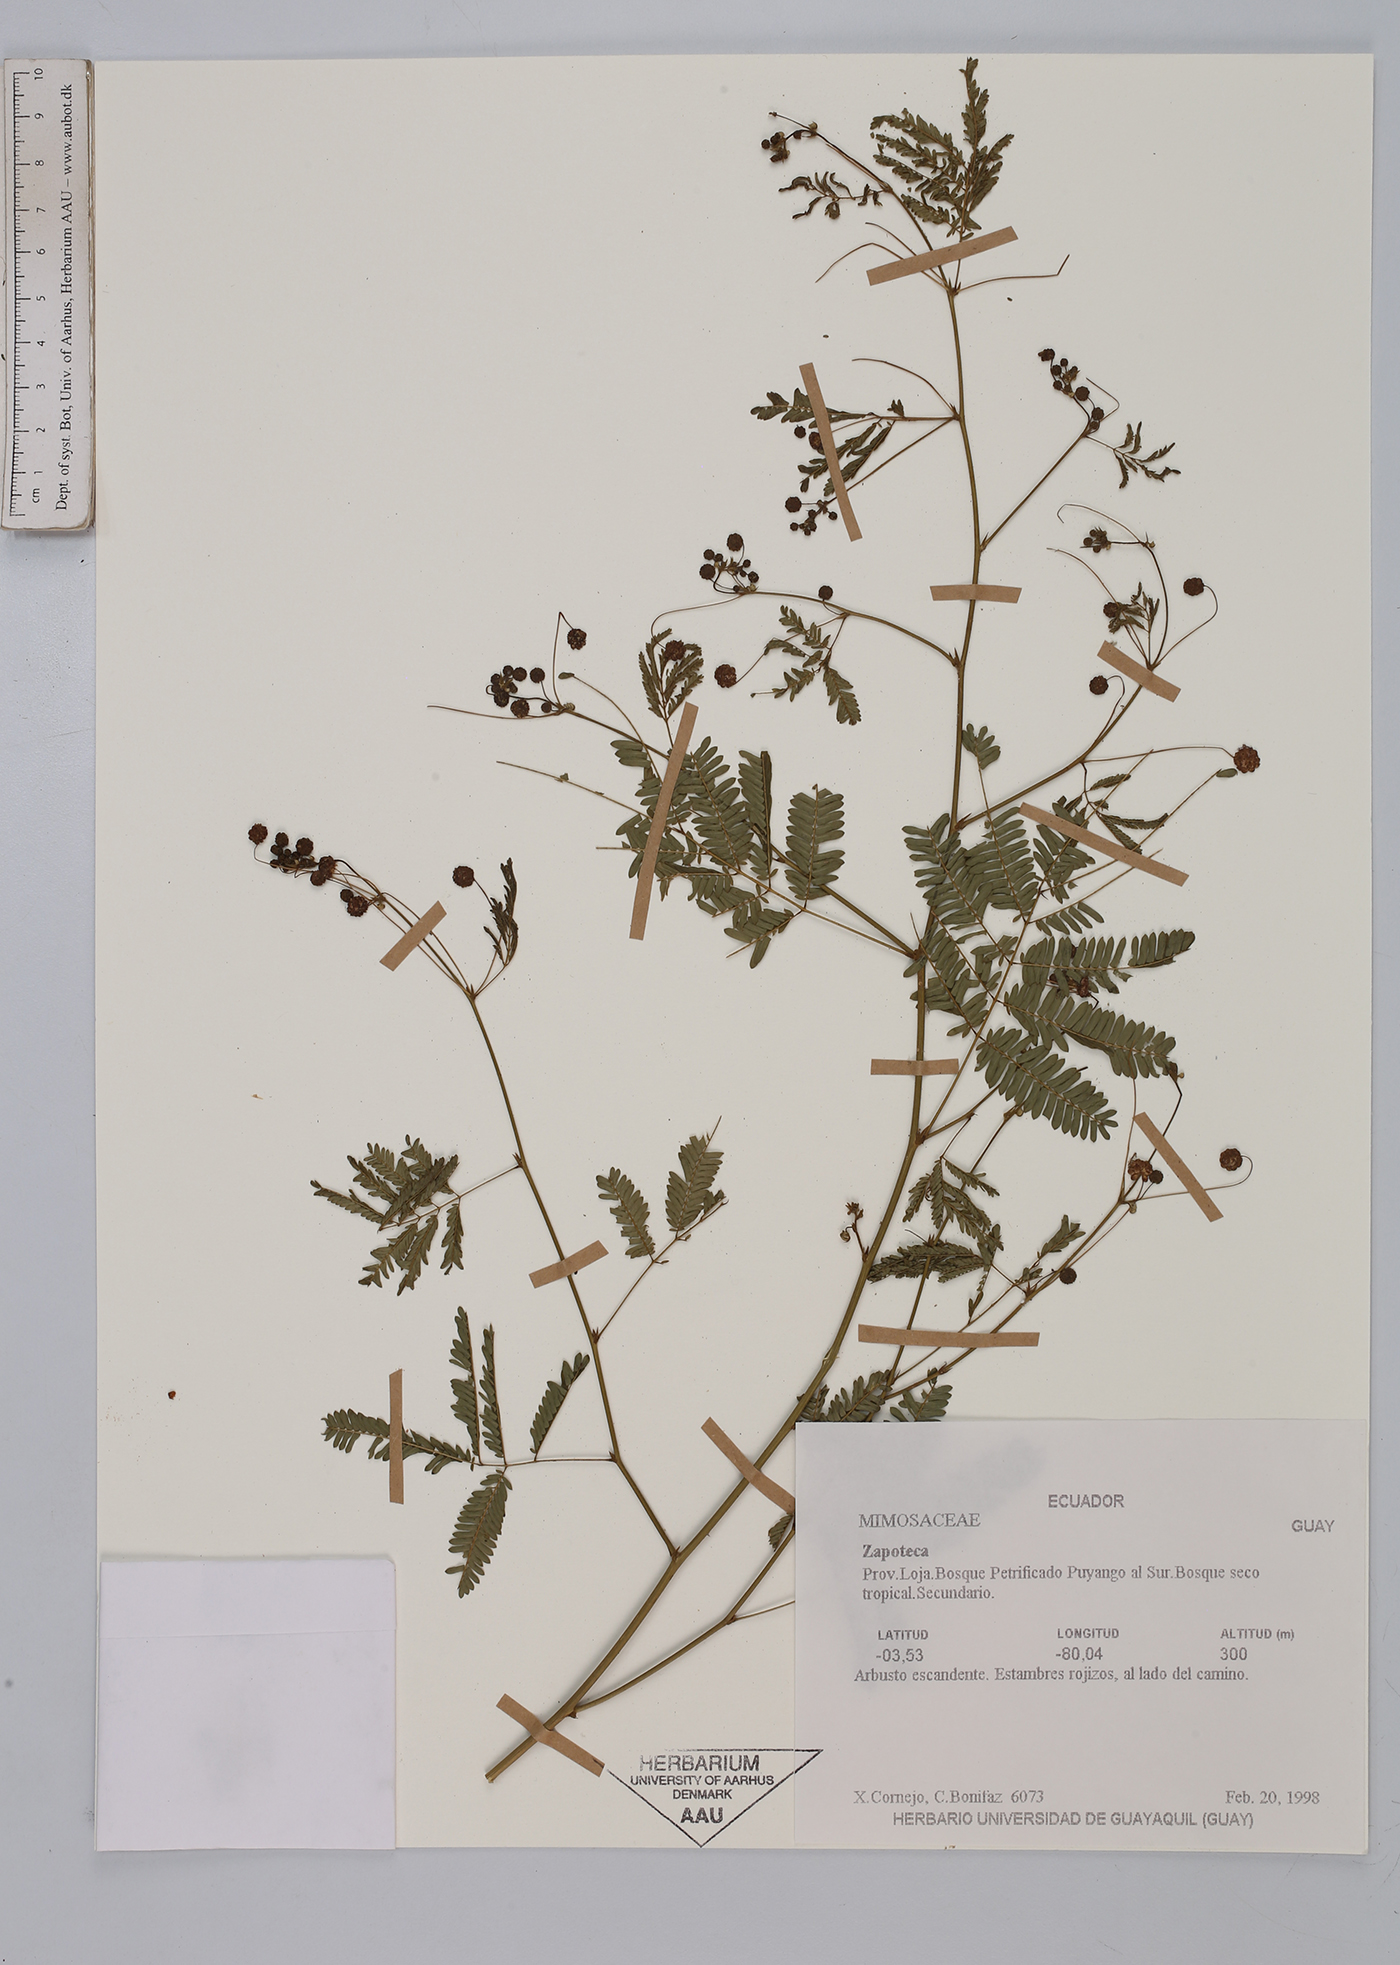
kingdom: Plantae
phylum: Tracheophyta
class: Magnoliopsida
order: Fabales
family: Fabaceae
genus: Zapoteca
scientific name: Zapoteca
